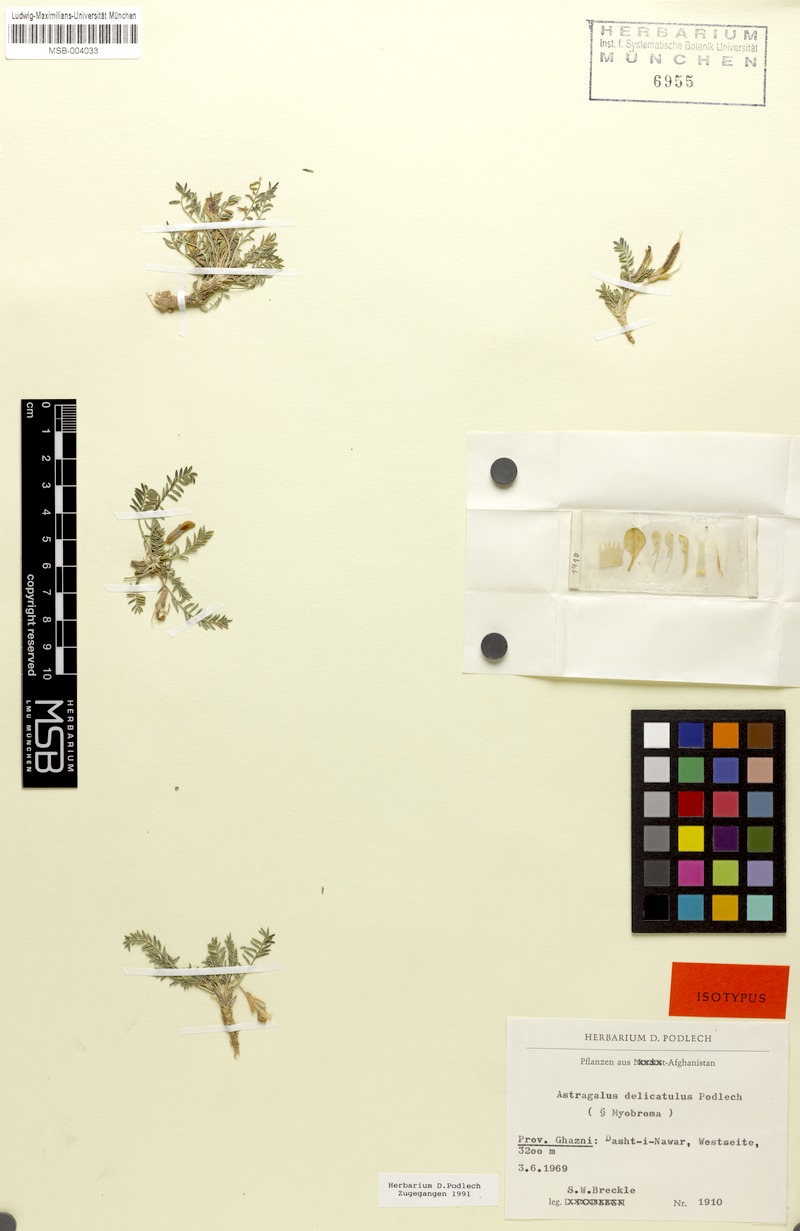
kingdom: Plantae
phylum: Tracheophyta
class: Magnoliopsida
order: Fabales
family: Fabaceae
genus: Astragalus
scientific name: Astragalus delicatulus
